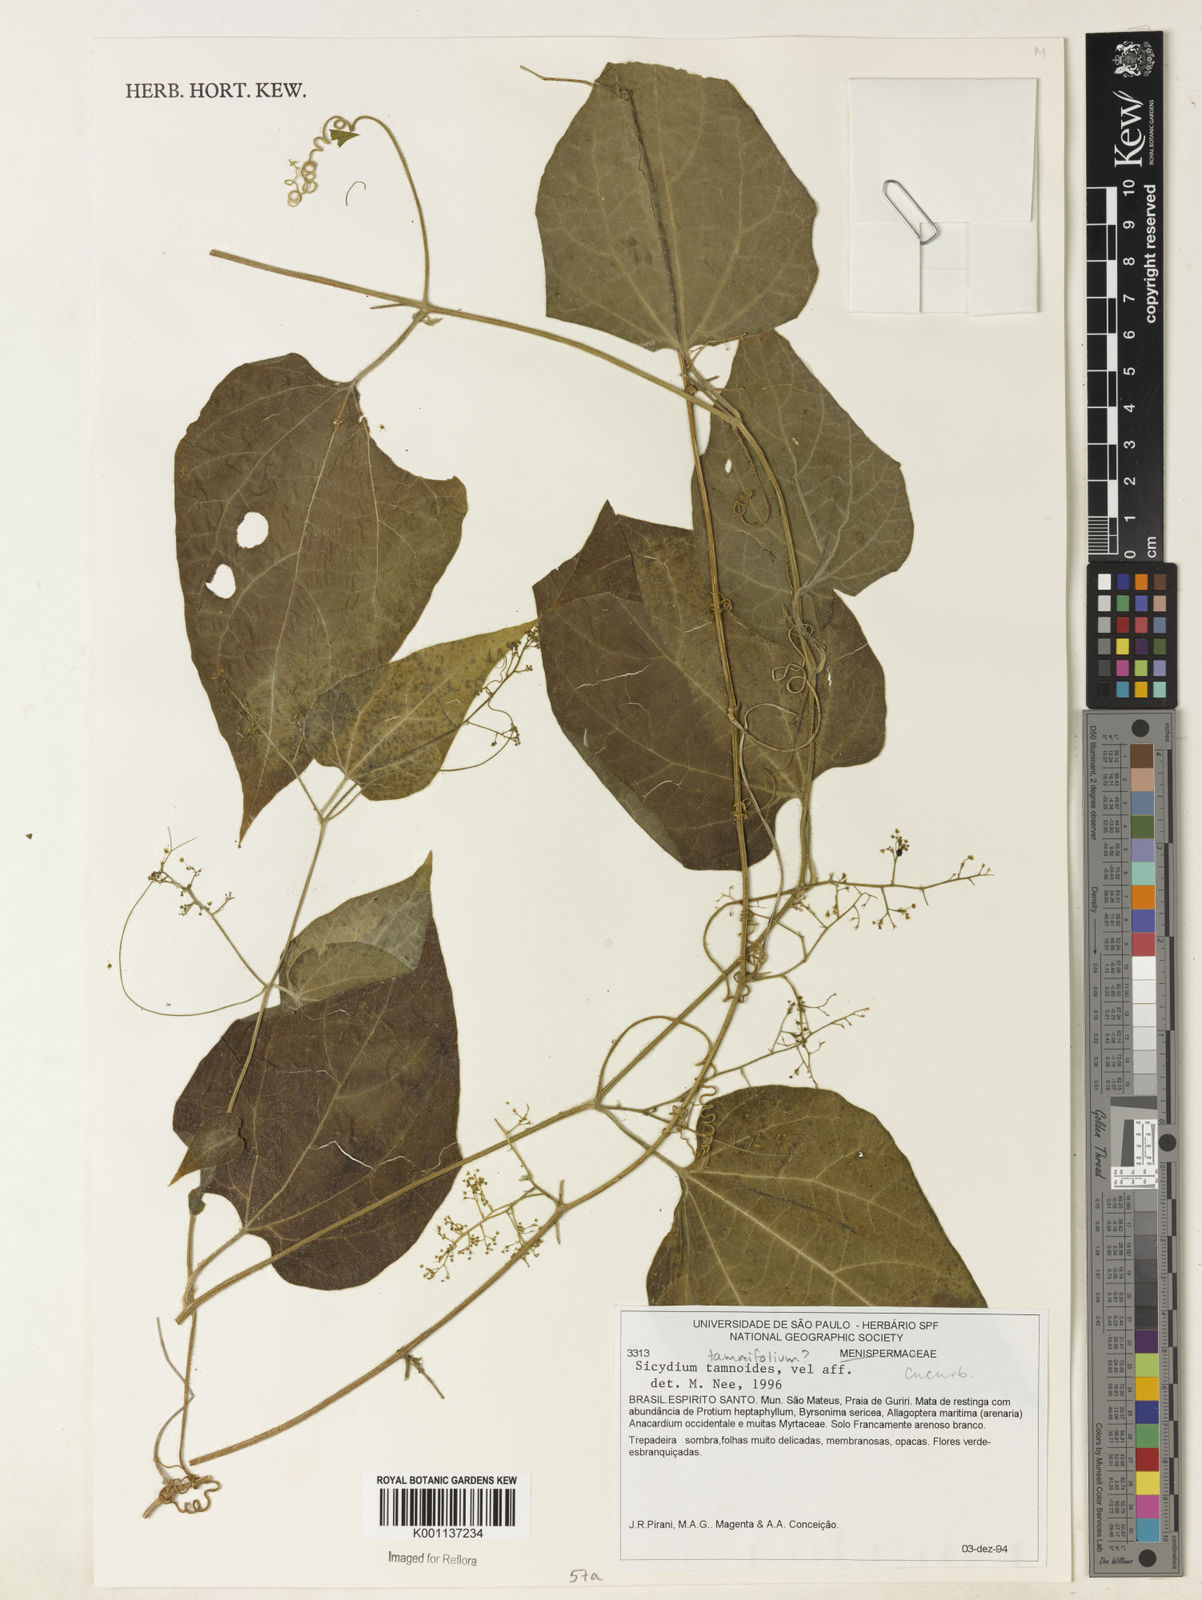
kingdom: Plantae
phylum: Tracheophyta
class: Magnoliopsida
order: Cucurbitales
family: Cucurbitaceae
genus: Sicydium
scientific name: Sicydium tamnifolium
